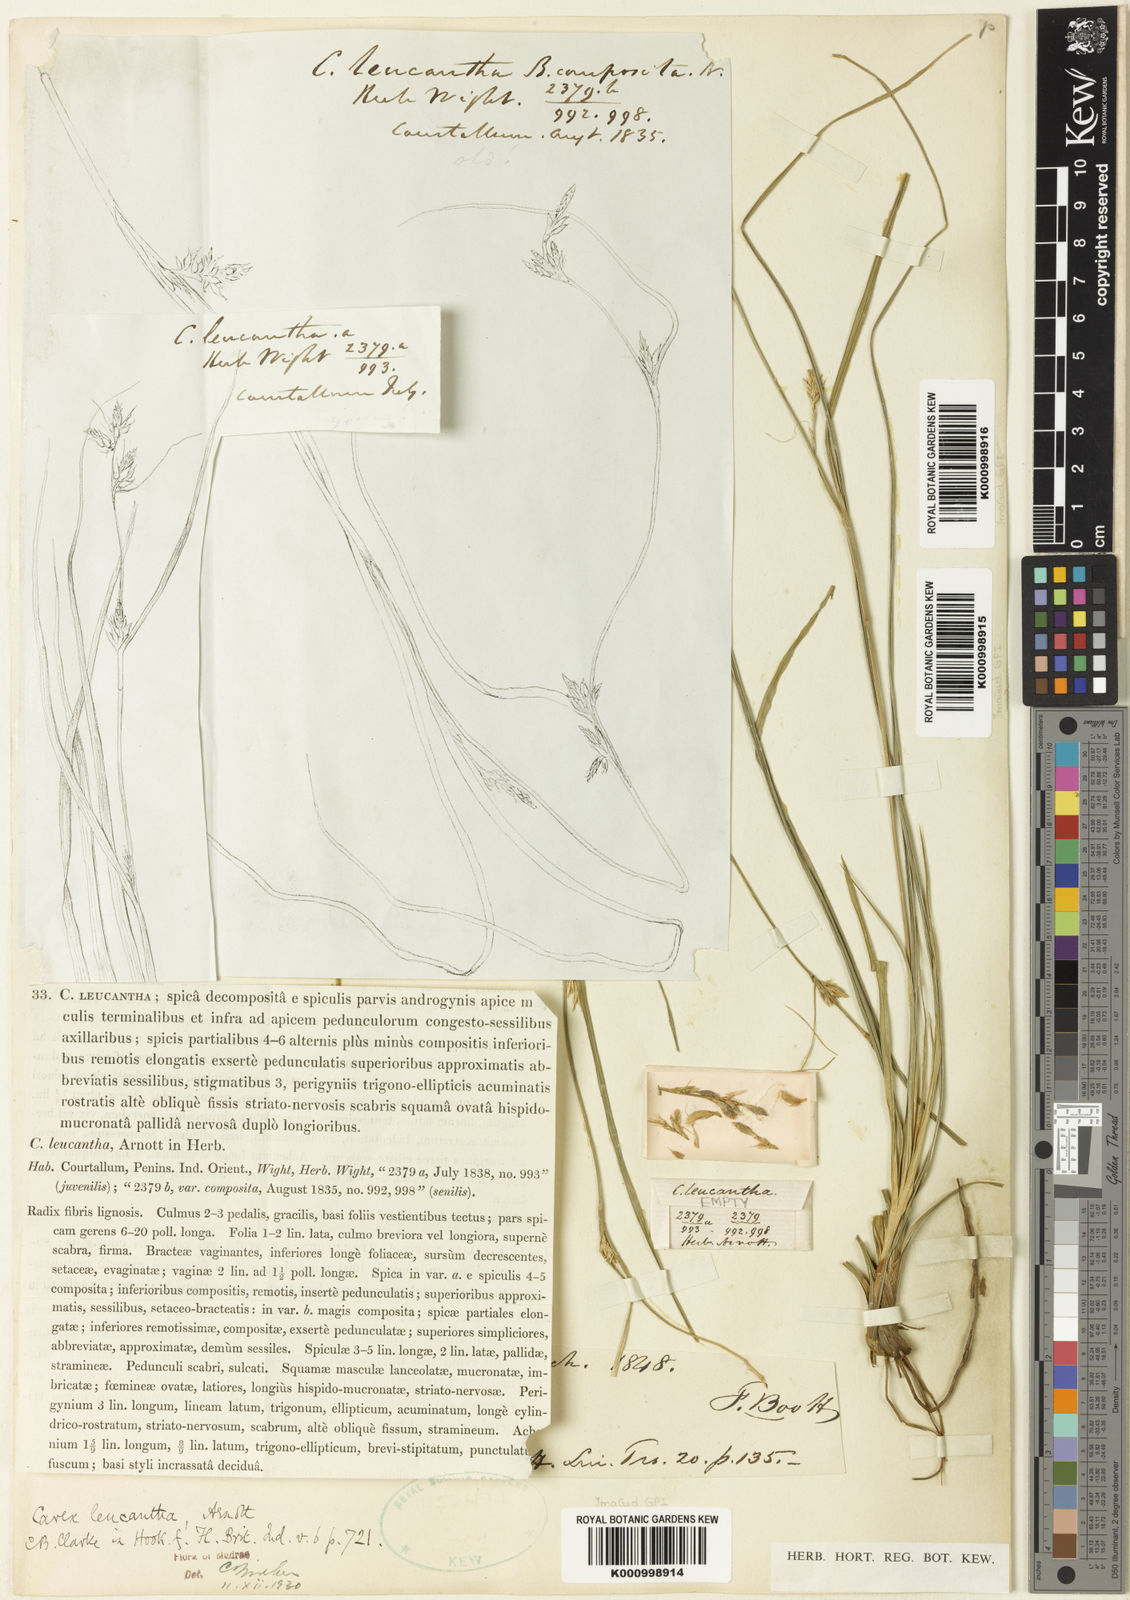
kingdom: Plantae
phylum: Tracheophyta
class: Liliopsida
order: Poales
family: Cyperaceae
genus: Carex
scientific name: Carex leucantha
